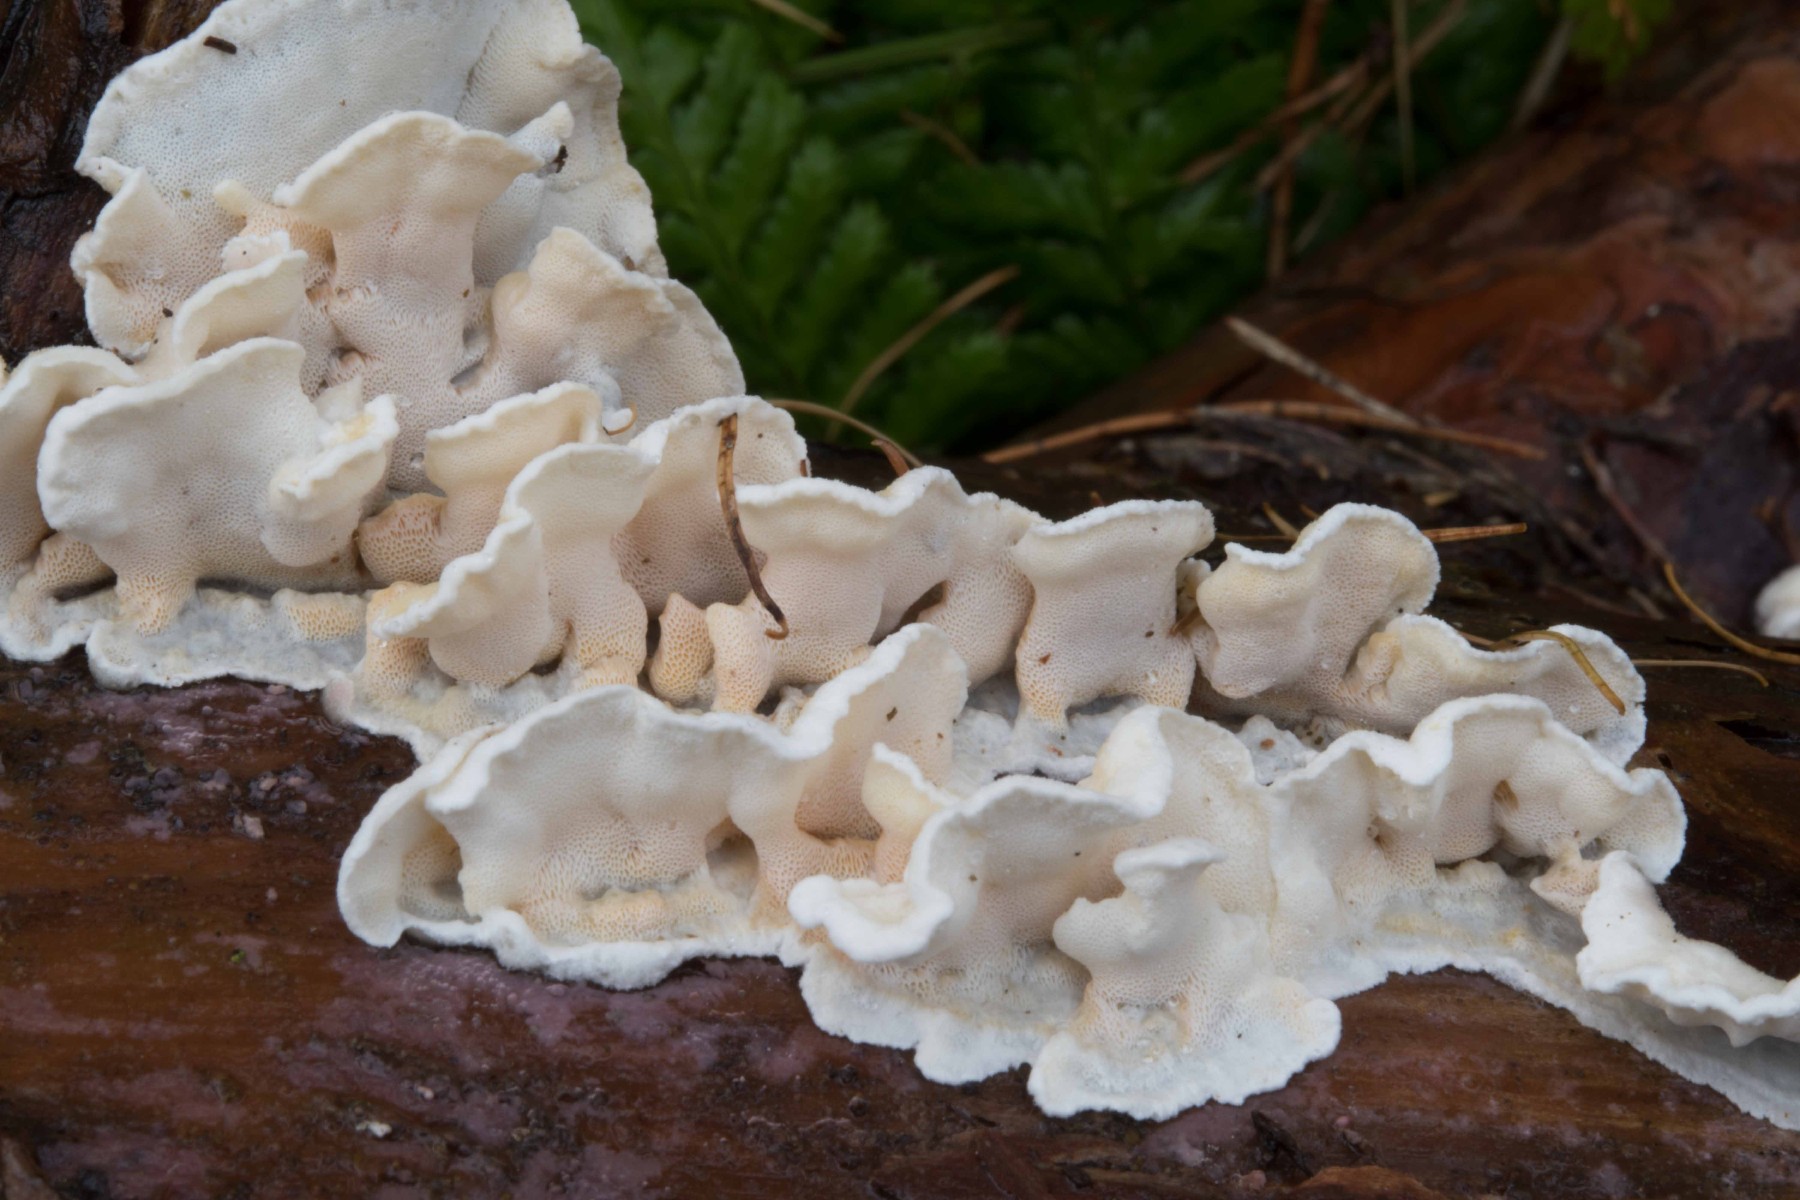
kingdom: Fungi
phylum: Basidiomycota
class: Agaricomycetes
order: Polyporales
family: Incrustoporiaceae
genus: Skeletocutis
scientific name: Skeletocutis amorpha
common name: orange krystalporesvamp
